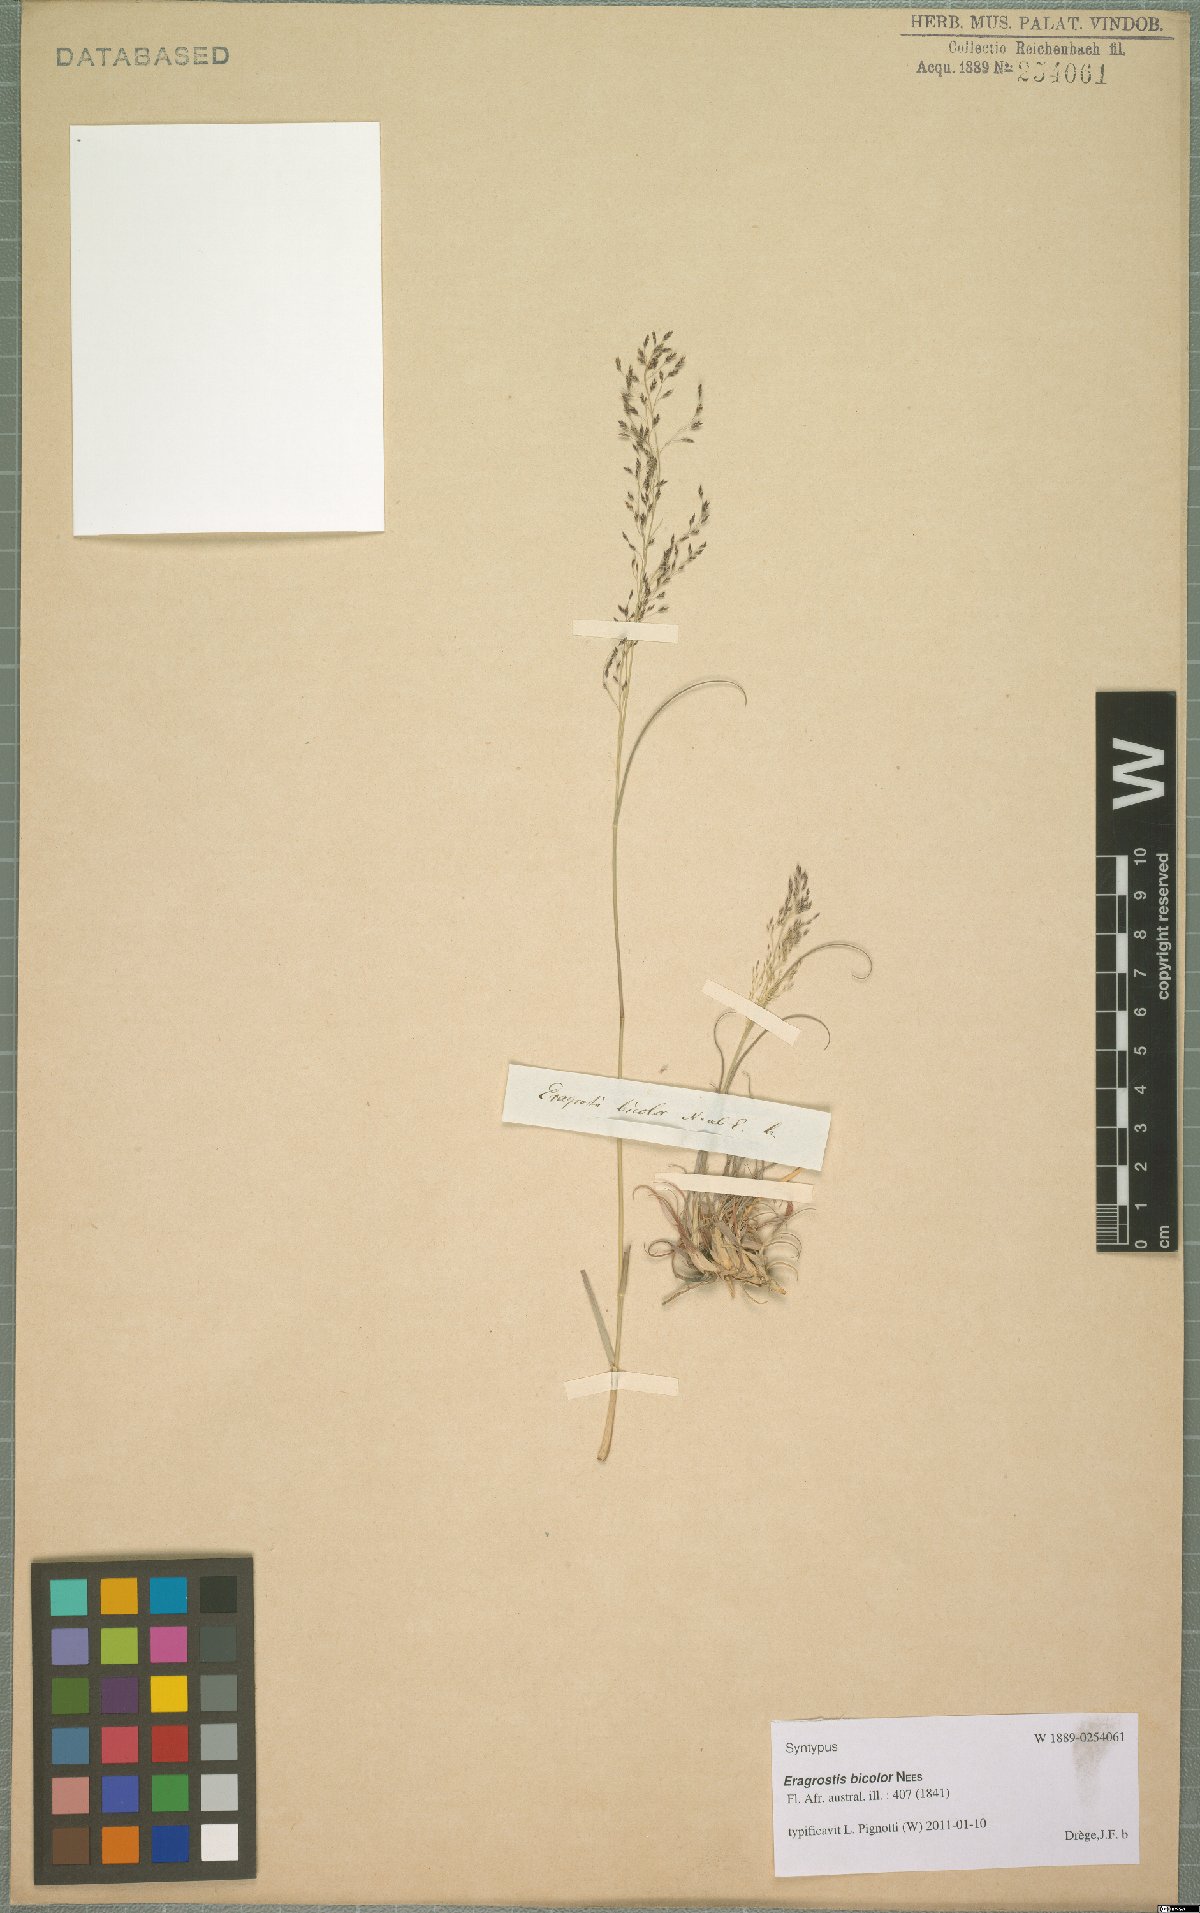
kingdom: Plantae
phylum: Tracheophyta
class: Liliopsida
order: Poales
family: Poaceae
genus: Eragrostis
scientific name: Eragrostis bicolor
